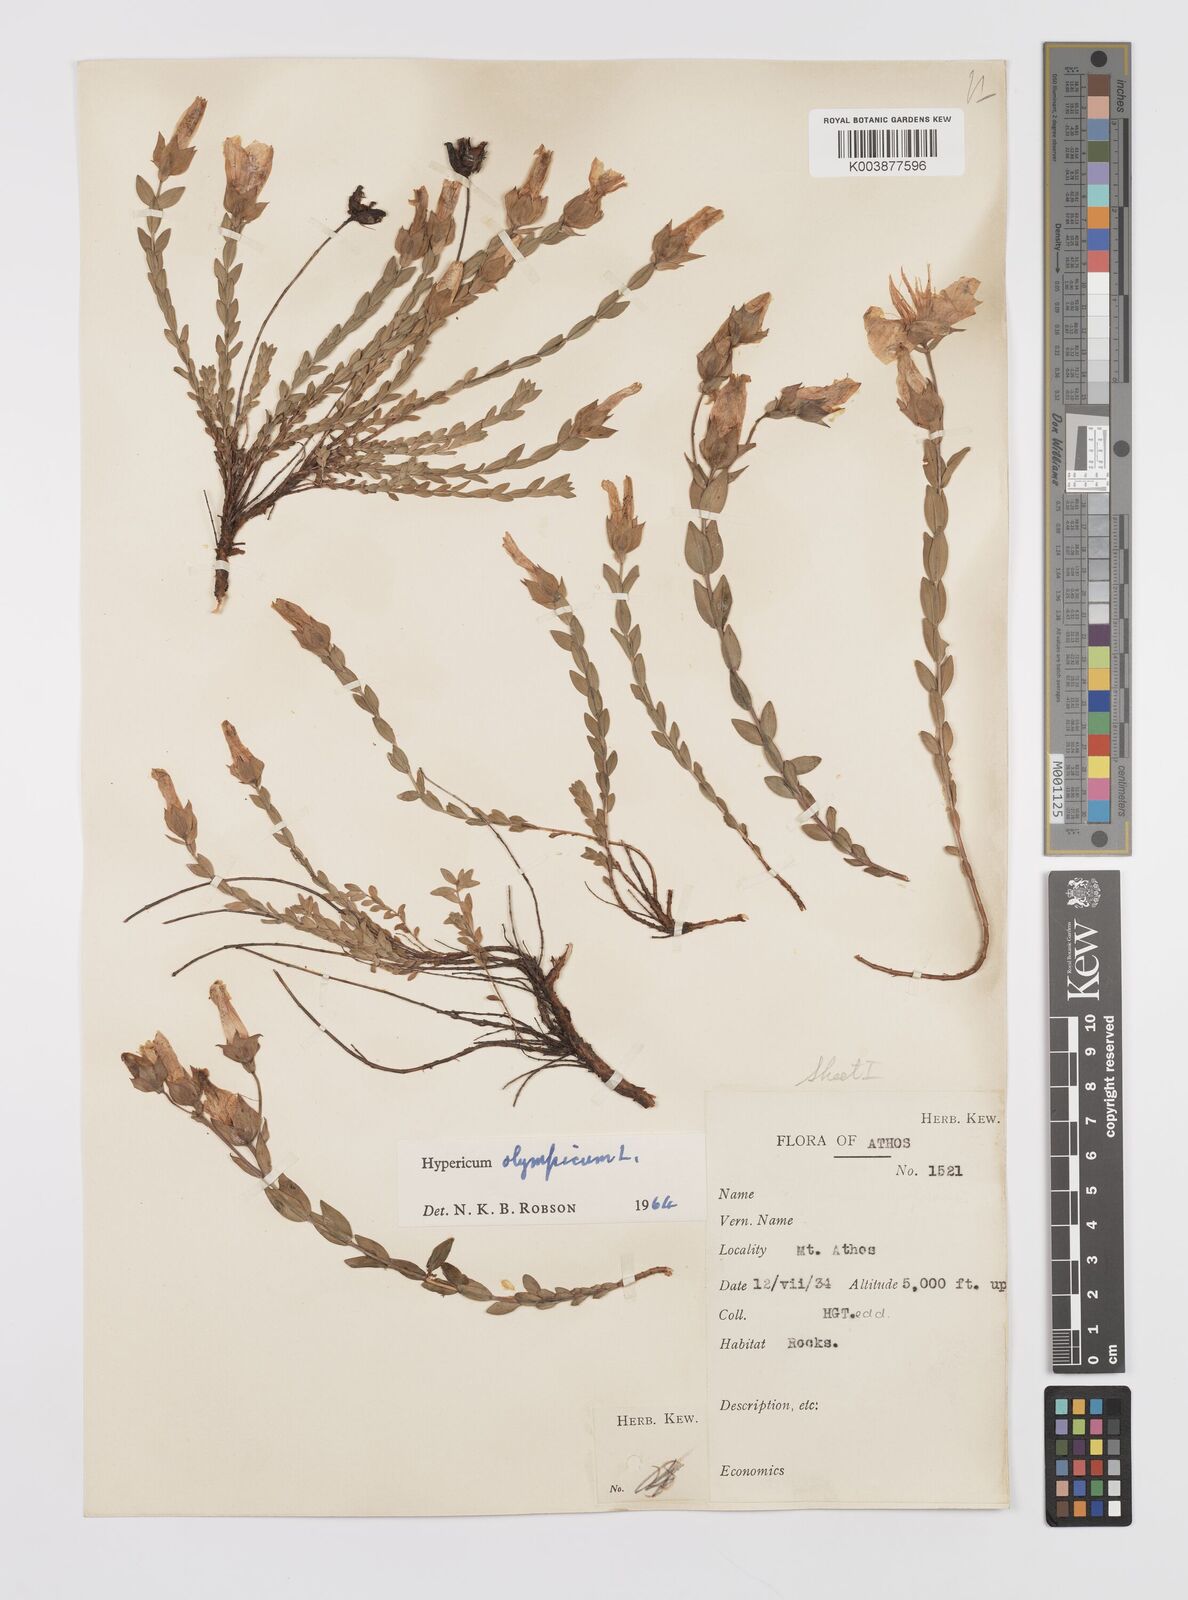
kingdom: Plantae
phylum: Tracheophyta
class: Magnoliopsida
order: Malpighiales
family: Hypericaceae
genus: Hypericum
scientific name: Hypericum olympicum
